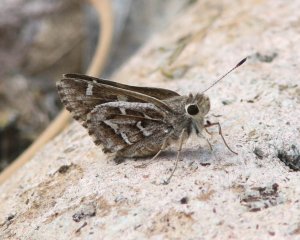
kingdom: Animalia
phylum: Arthropoda
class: Insecta
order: Lepidoptera
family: Hesperiidae
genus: Atrytonopsis
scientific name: Atrytonopsis python
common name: Cestus Skipper
